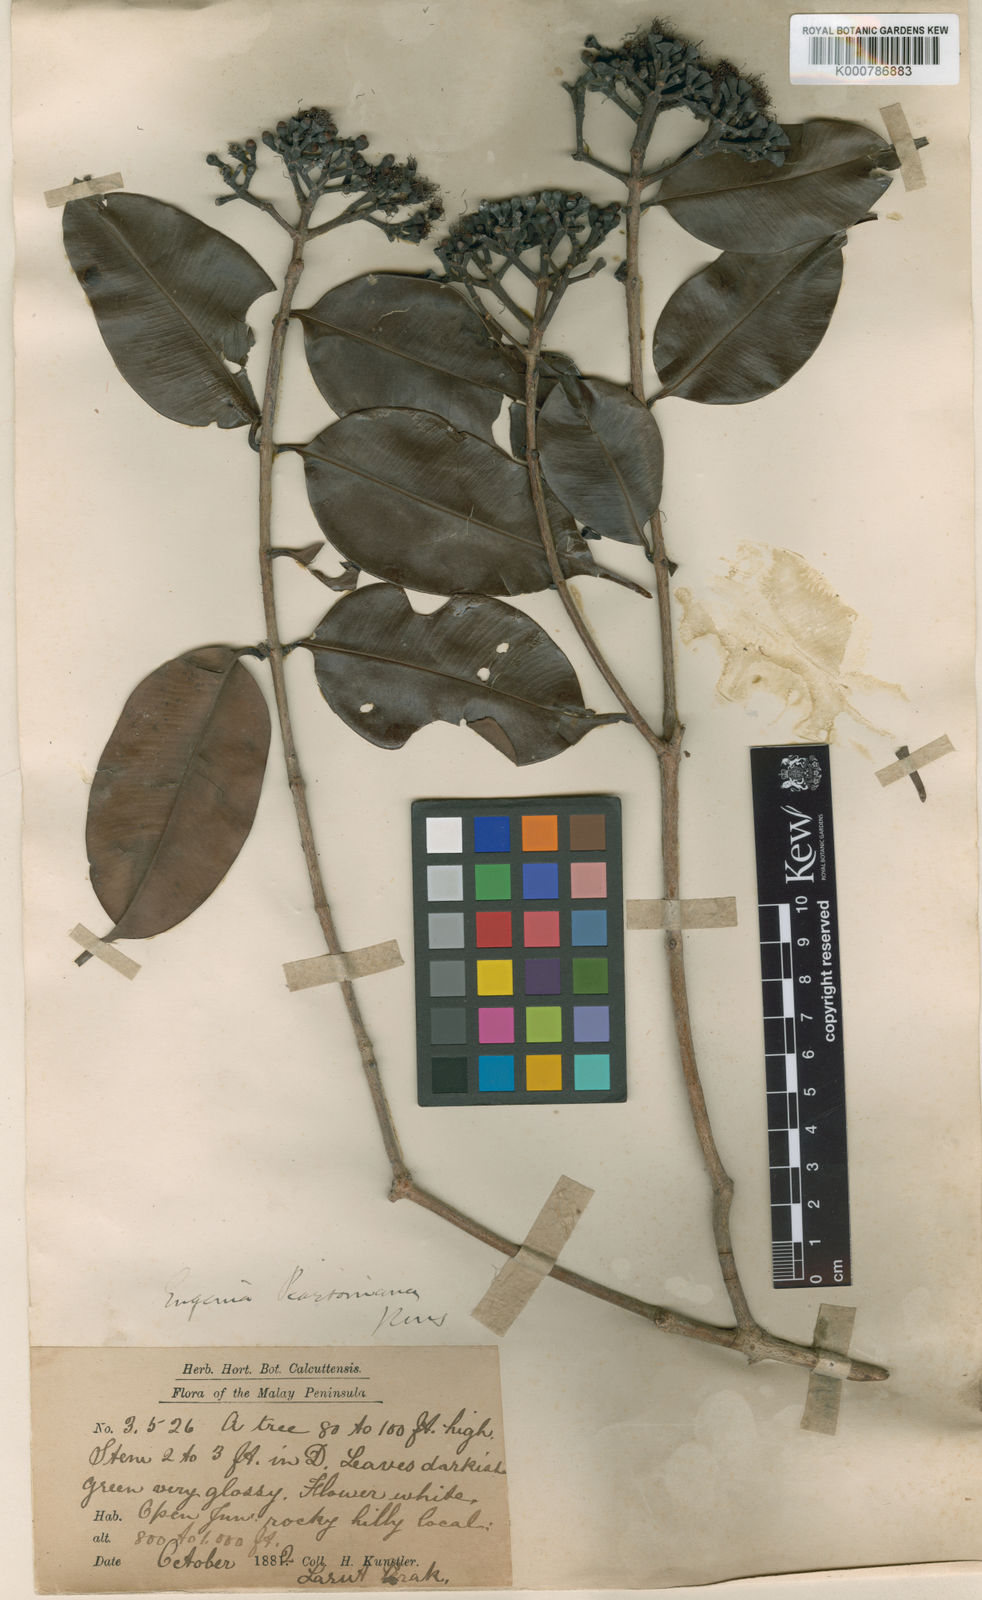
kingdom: Plantae
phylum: Tracheophyta
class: Magnoliopsida
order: Myrtales
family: Myrtaceae
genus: Syzygium
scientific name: Syzygium praineanum
